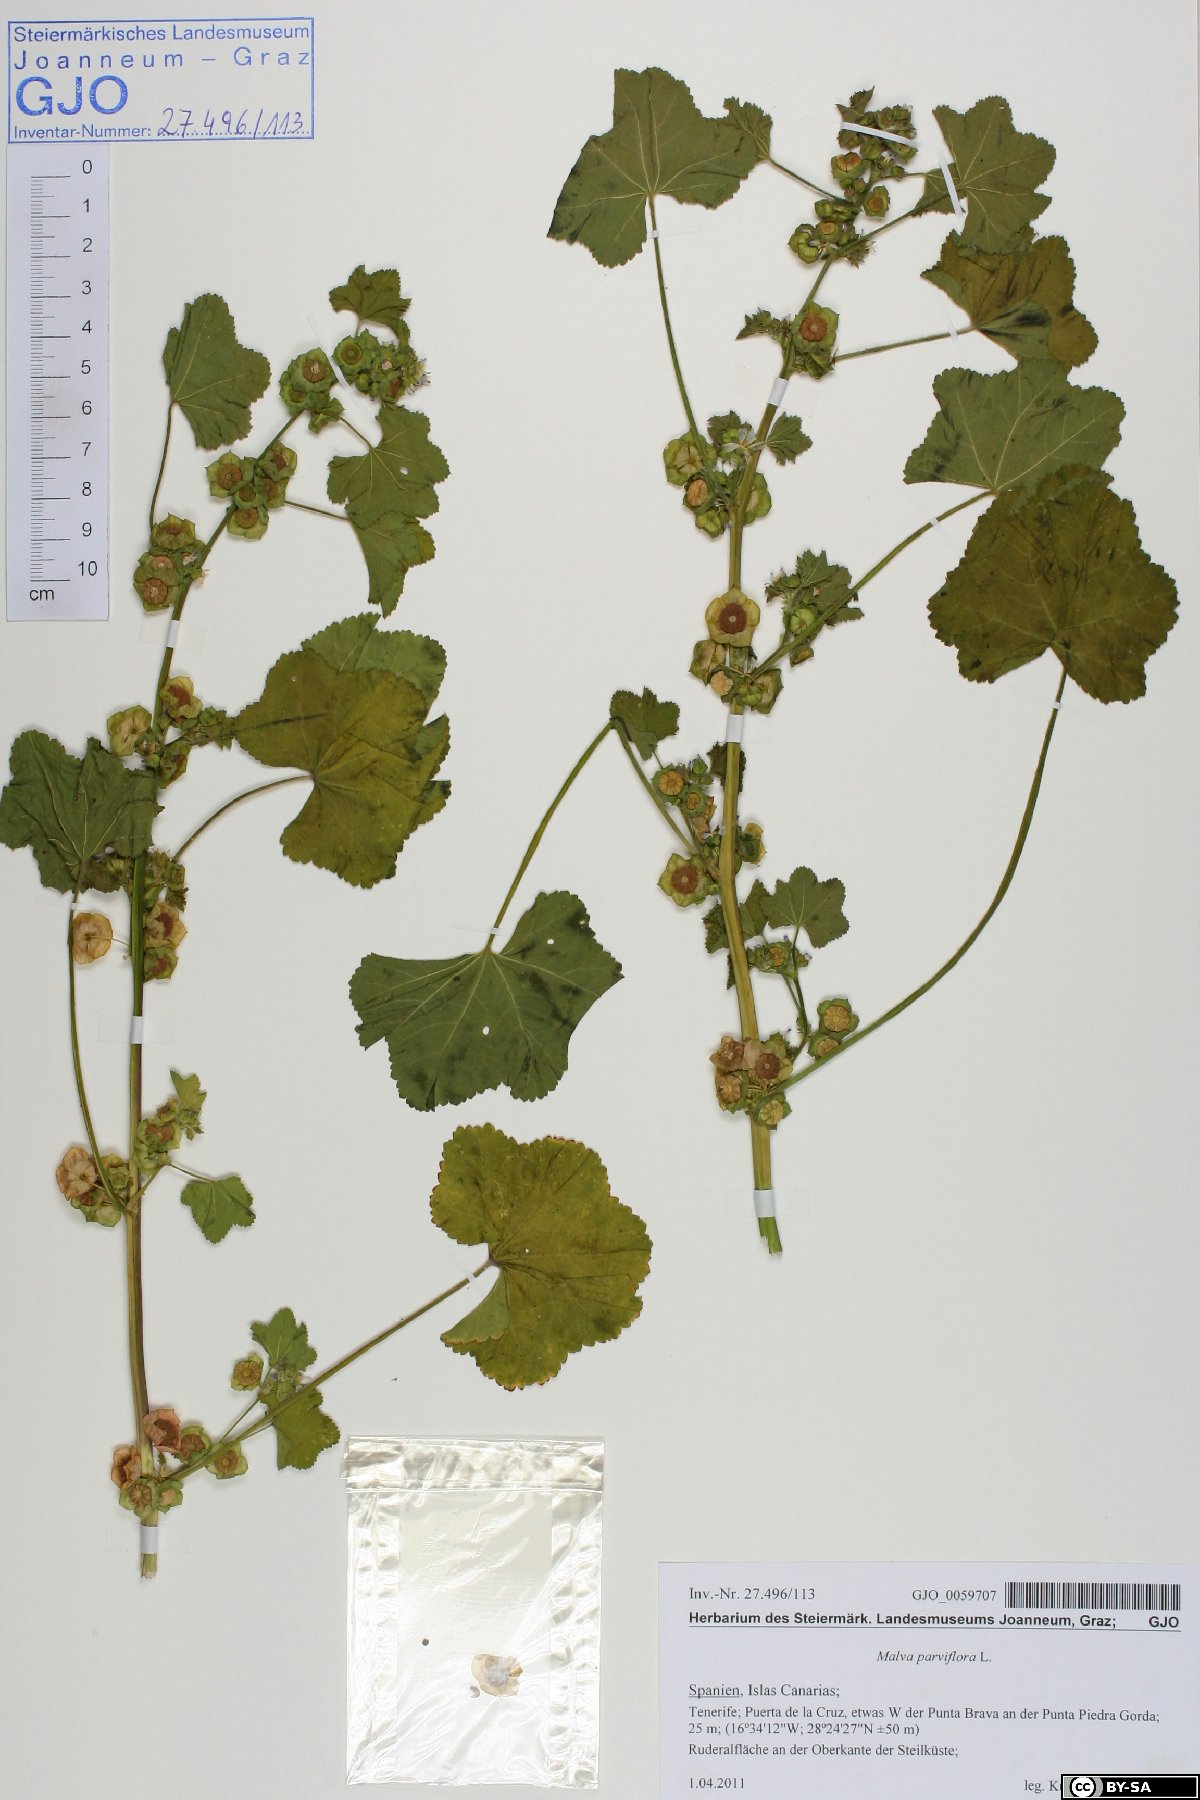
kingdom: Plantae
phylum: Tracheophyta
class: Magnoliopsida
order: Malvales
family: Malvaceae
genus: Malva
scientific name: Malva parviflora
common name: Least mallow
